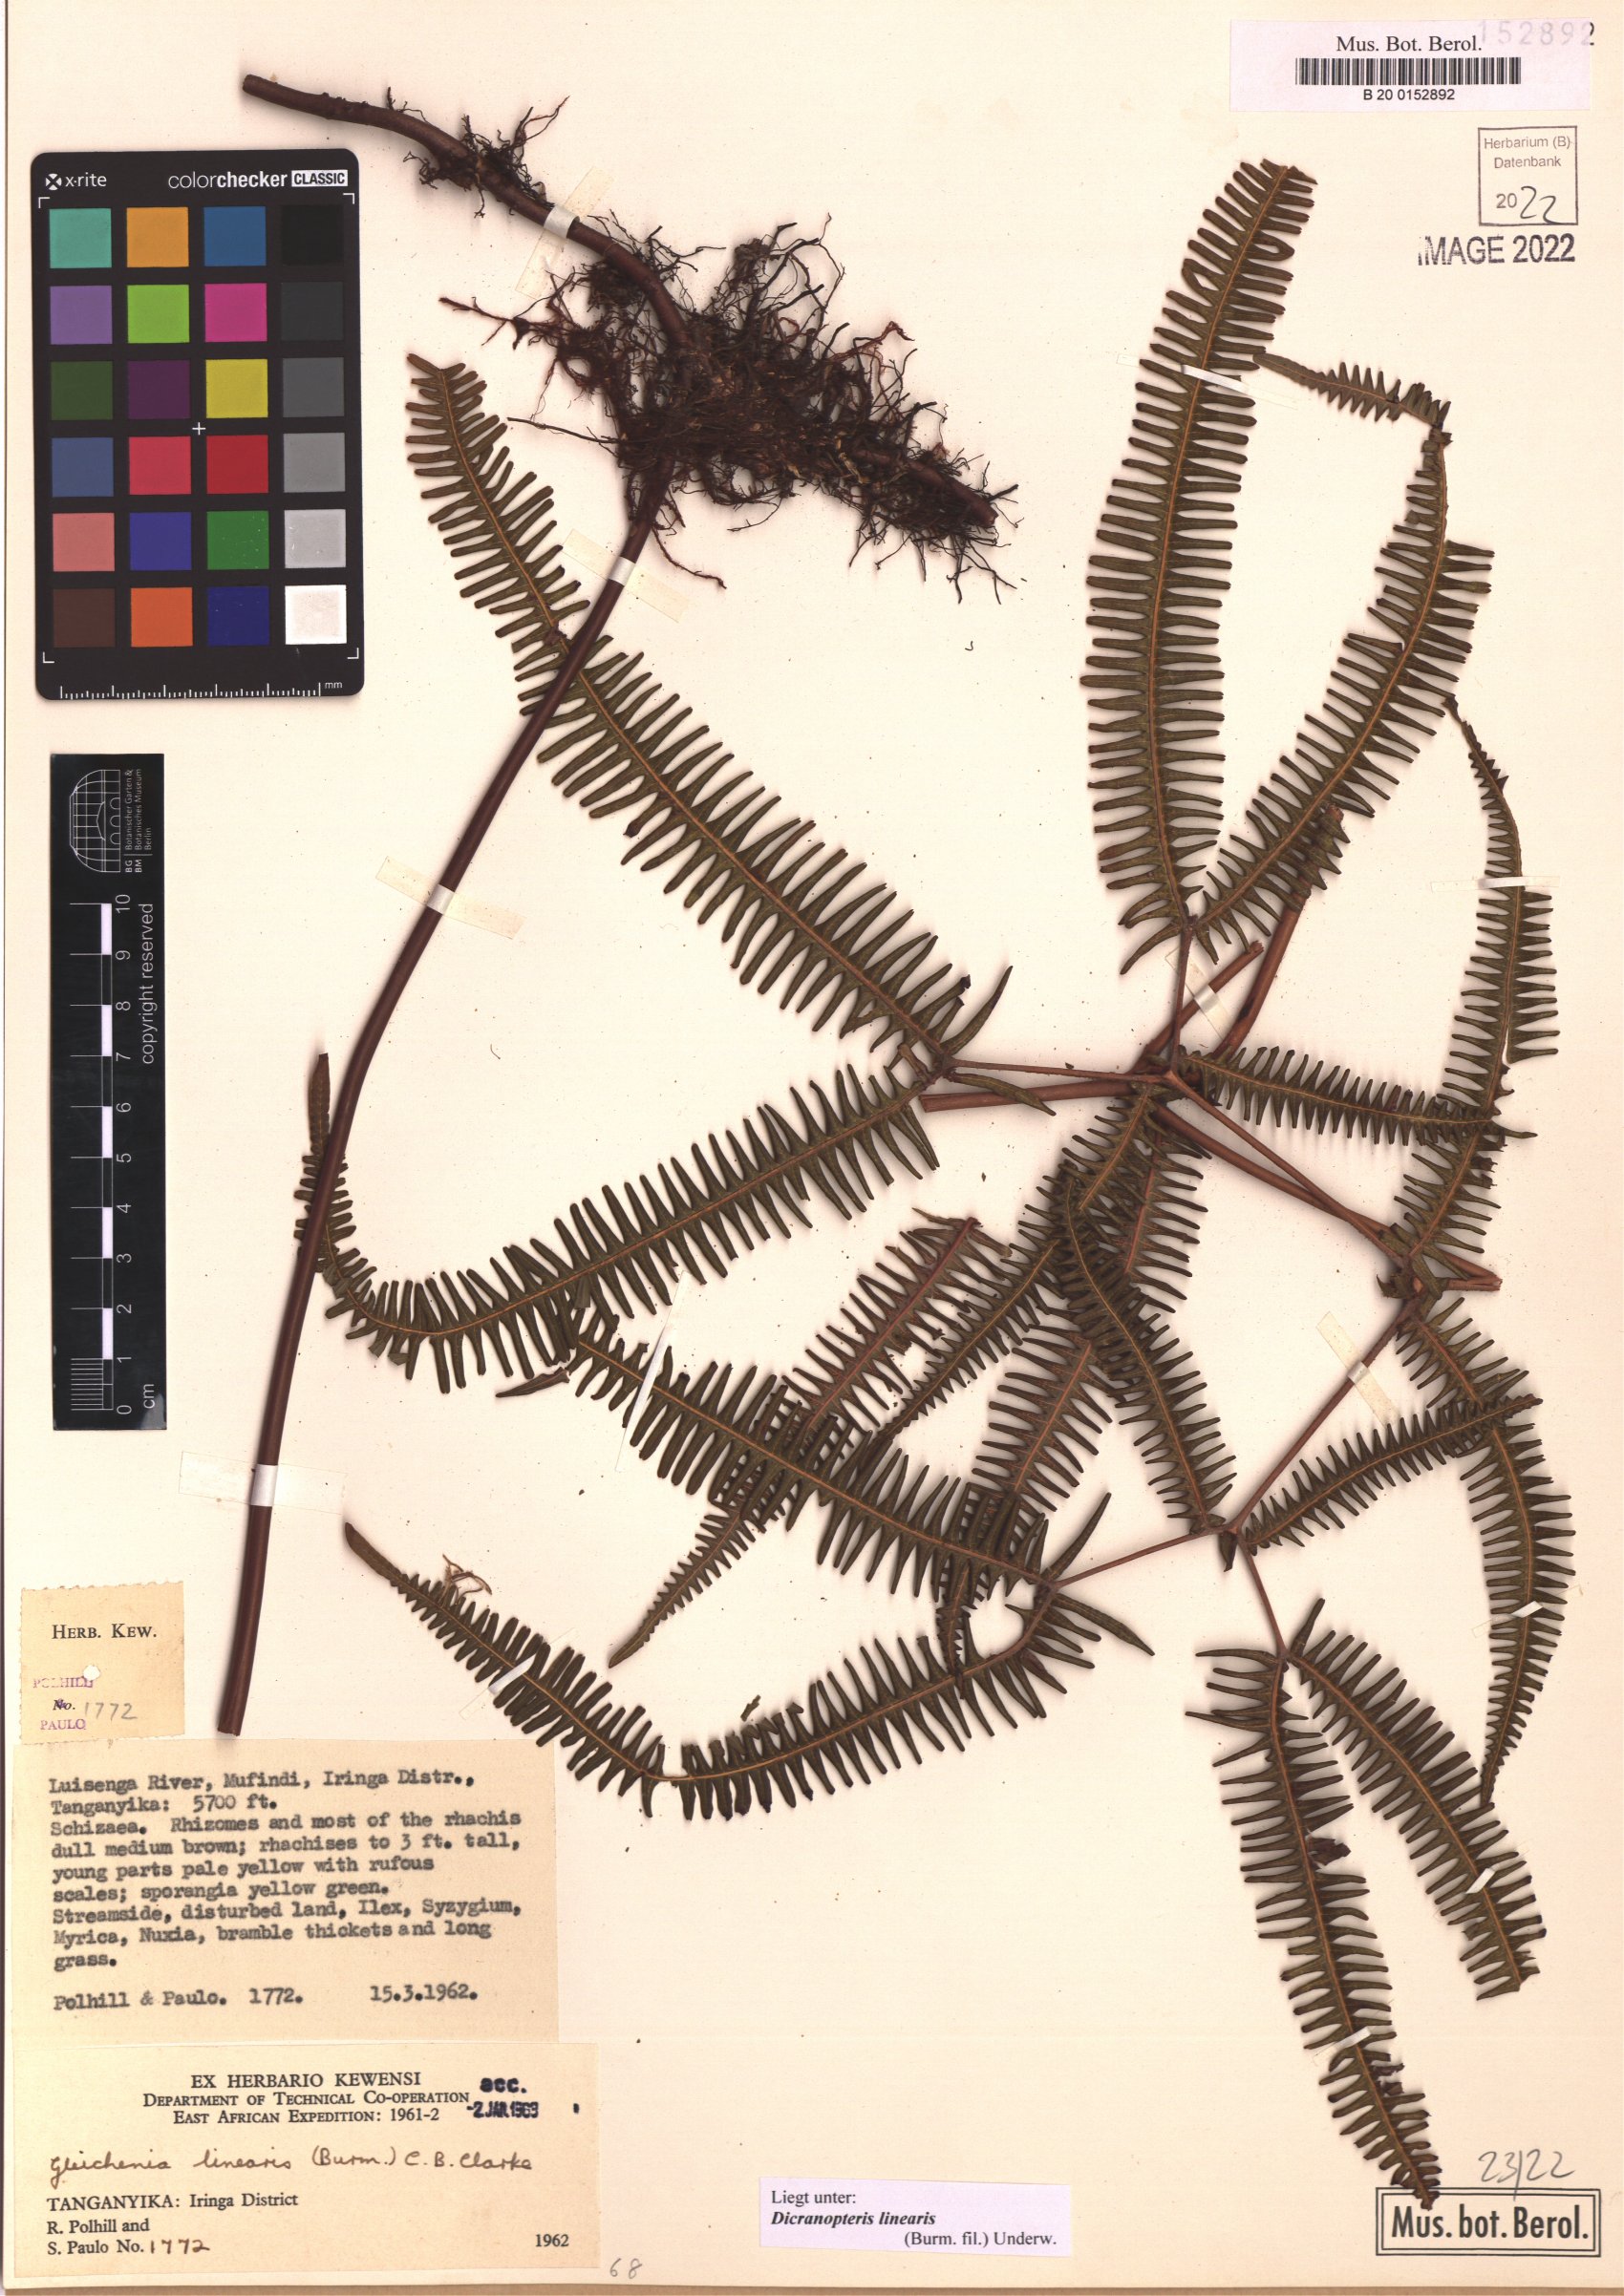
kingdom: Plantae
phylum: Tracheophyta
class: Polypodiopsida
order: Gleicheniales
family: Gleicheniaceae
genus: Dicranopteris
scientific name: Dicranopteris linearis
